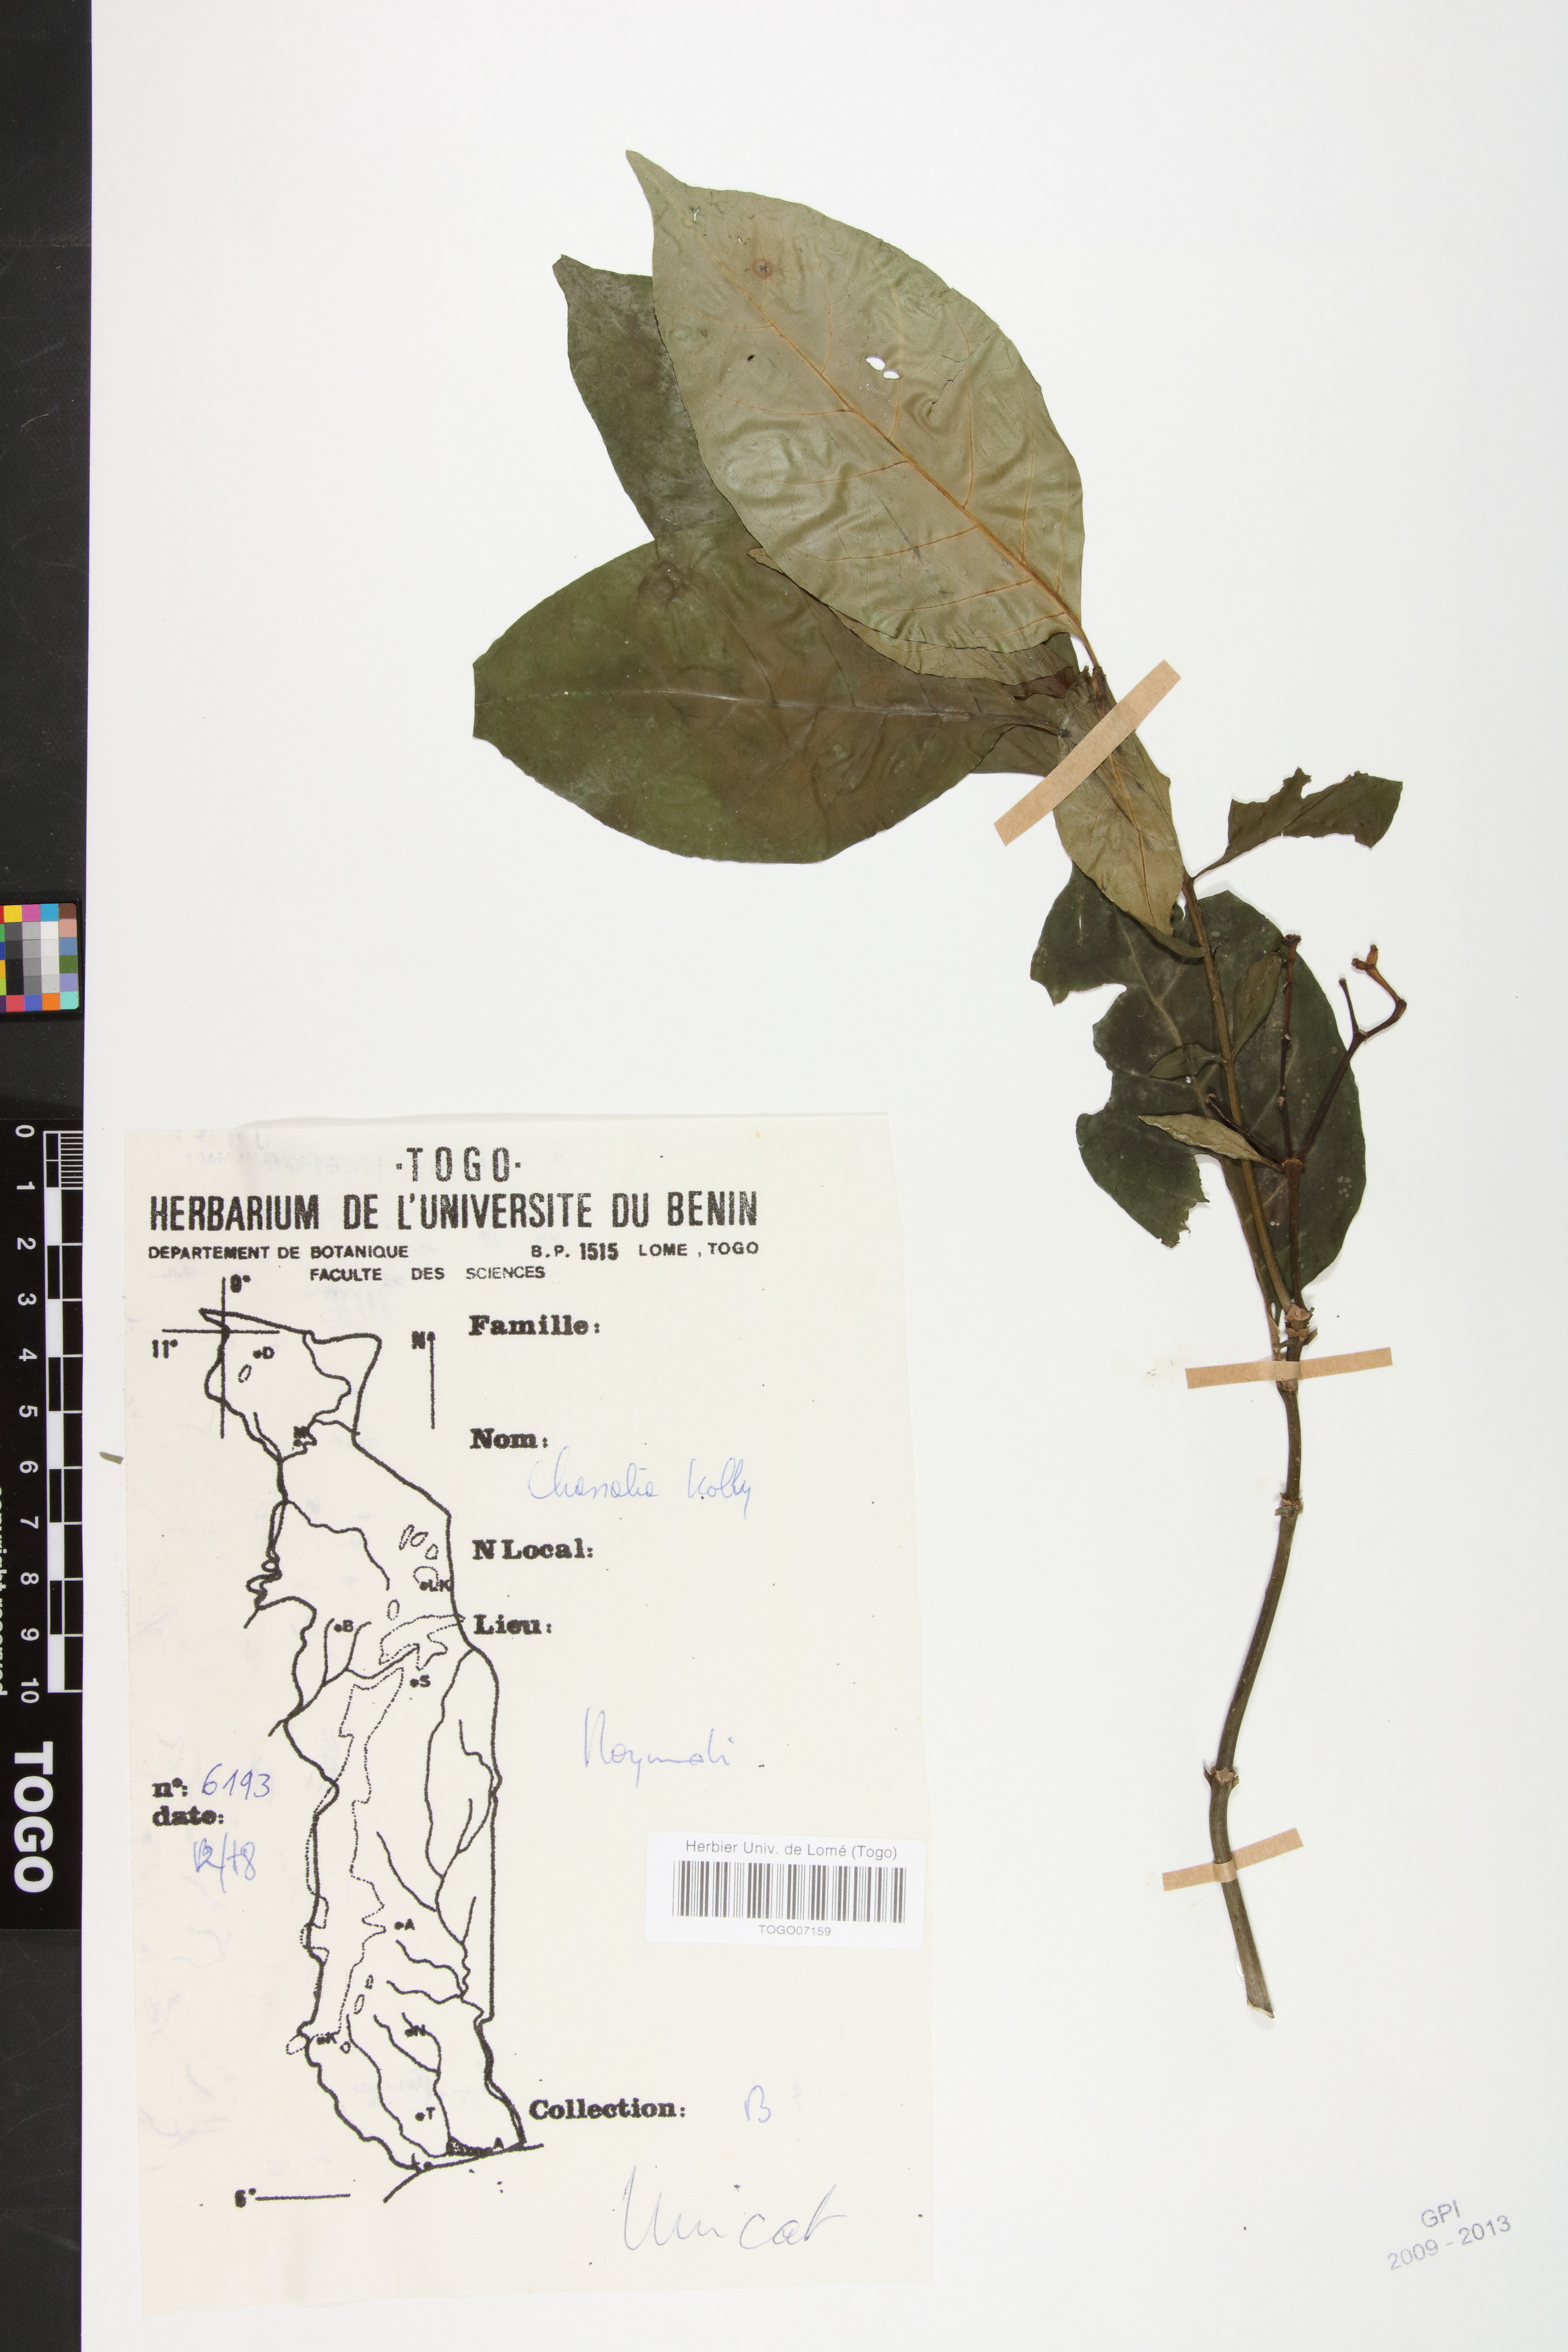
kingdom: Plantae
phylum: Tracheophyta
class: Magnoliopsida
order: Gentianales
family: Rubiaceae
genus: Chassalia
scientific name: Chassalia kolly
